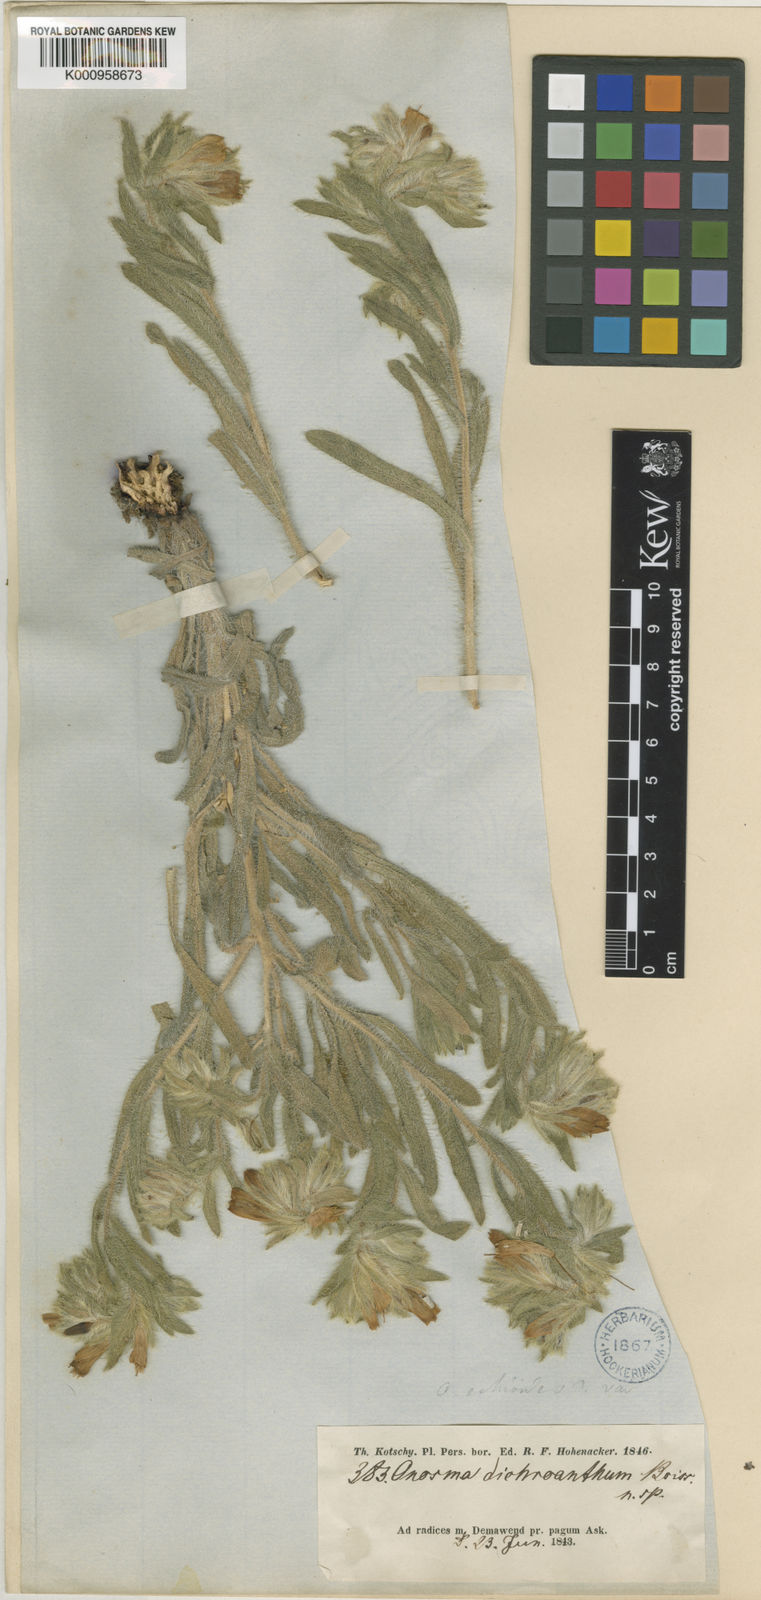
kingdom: Plantae
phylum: Tracheophyta
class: Magnoliopsida
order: Boraginales
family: Boraginaceae
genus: Onosma
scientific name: Onosma setosa
